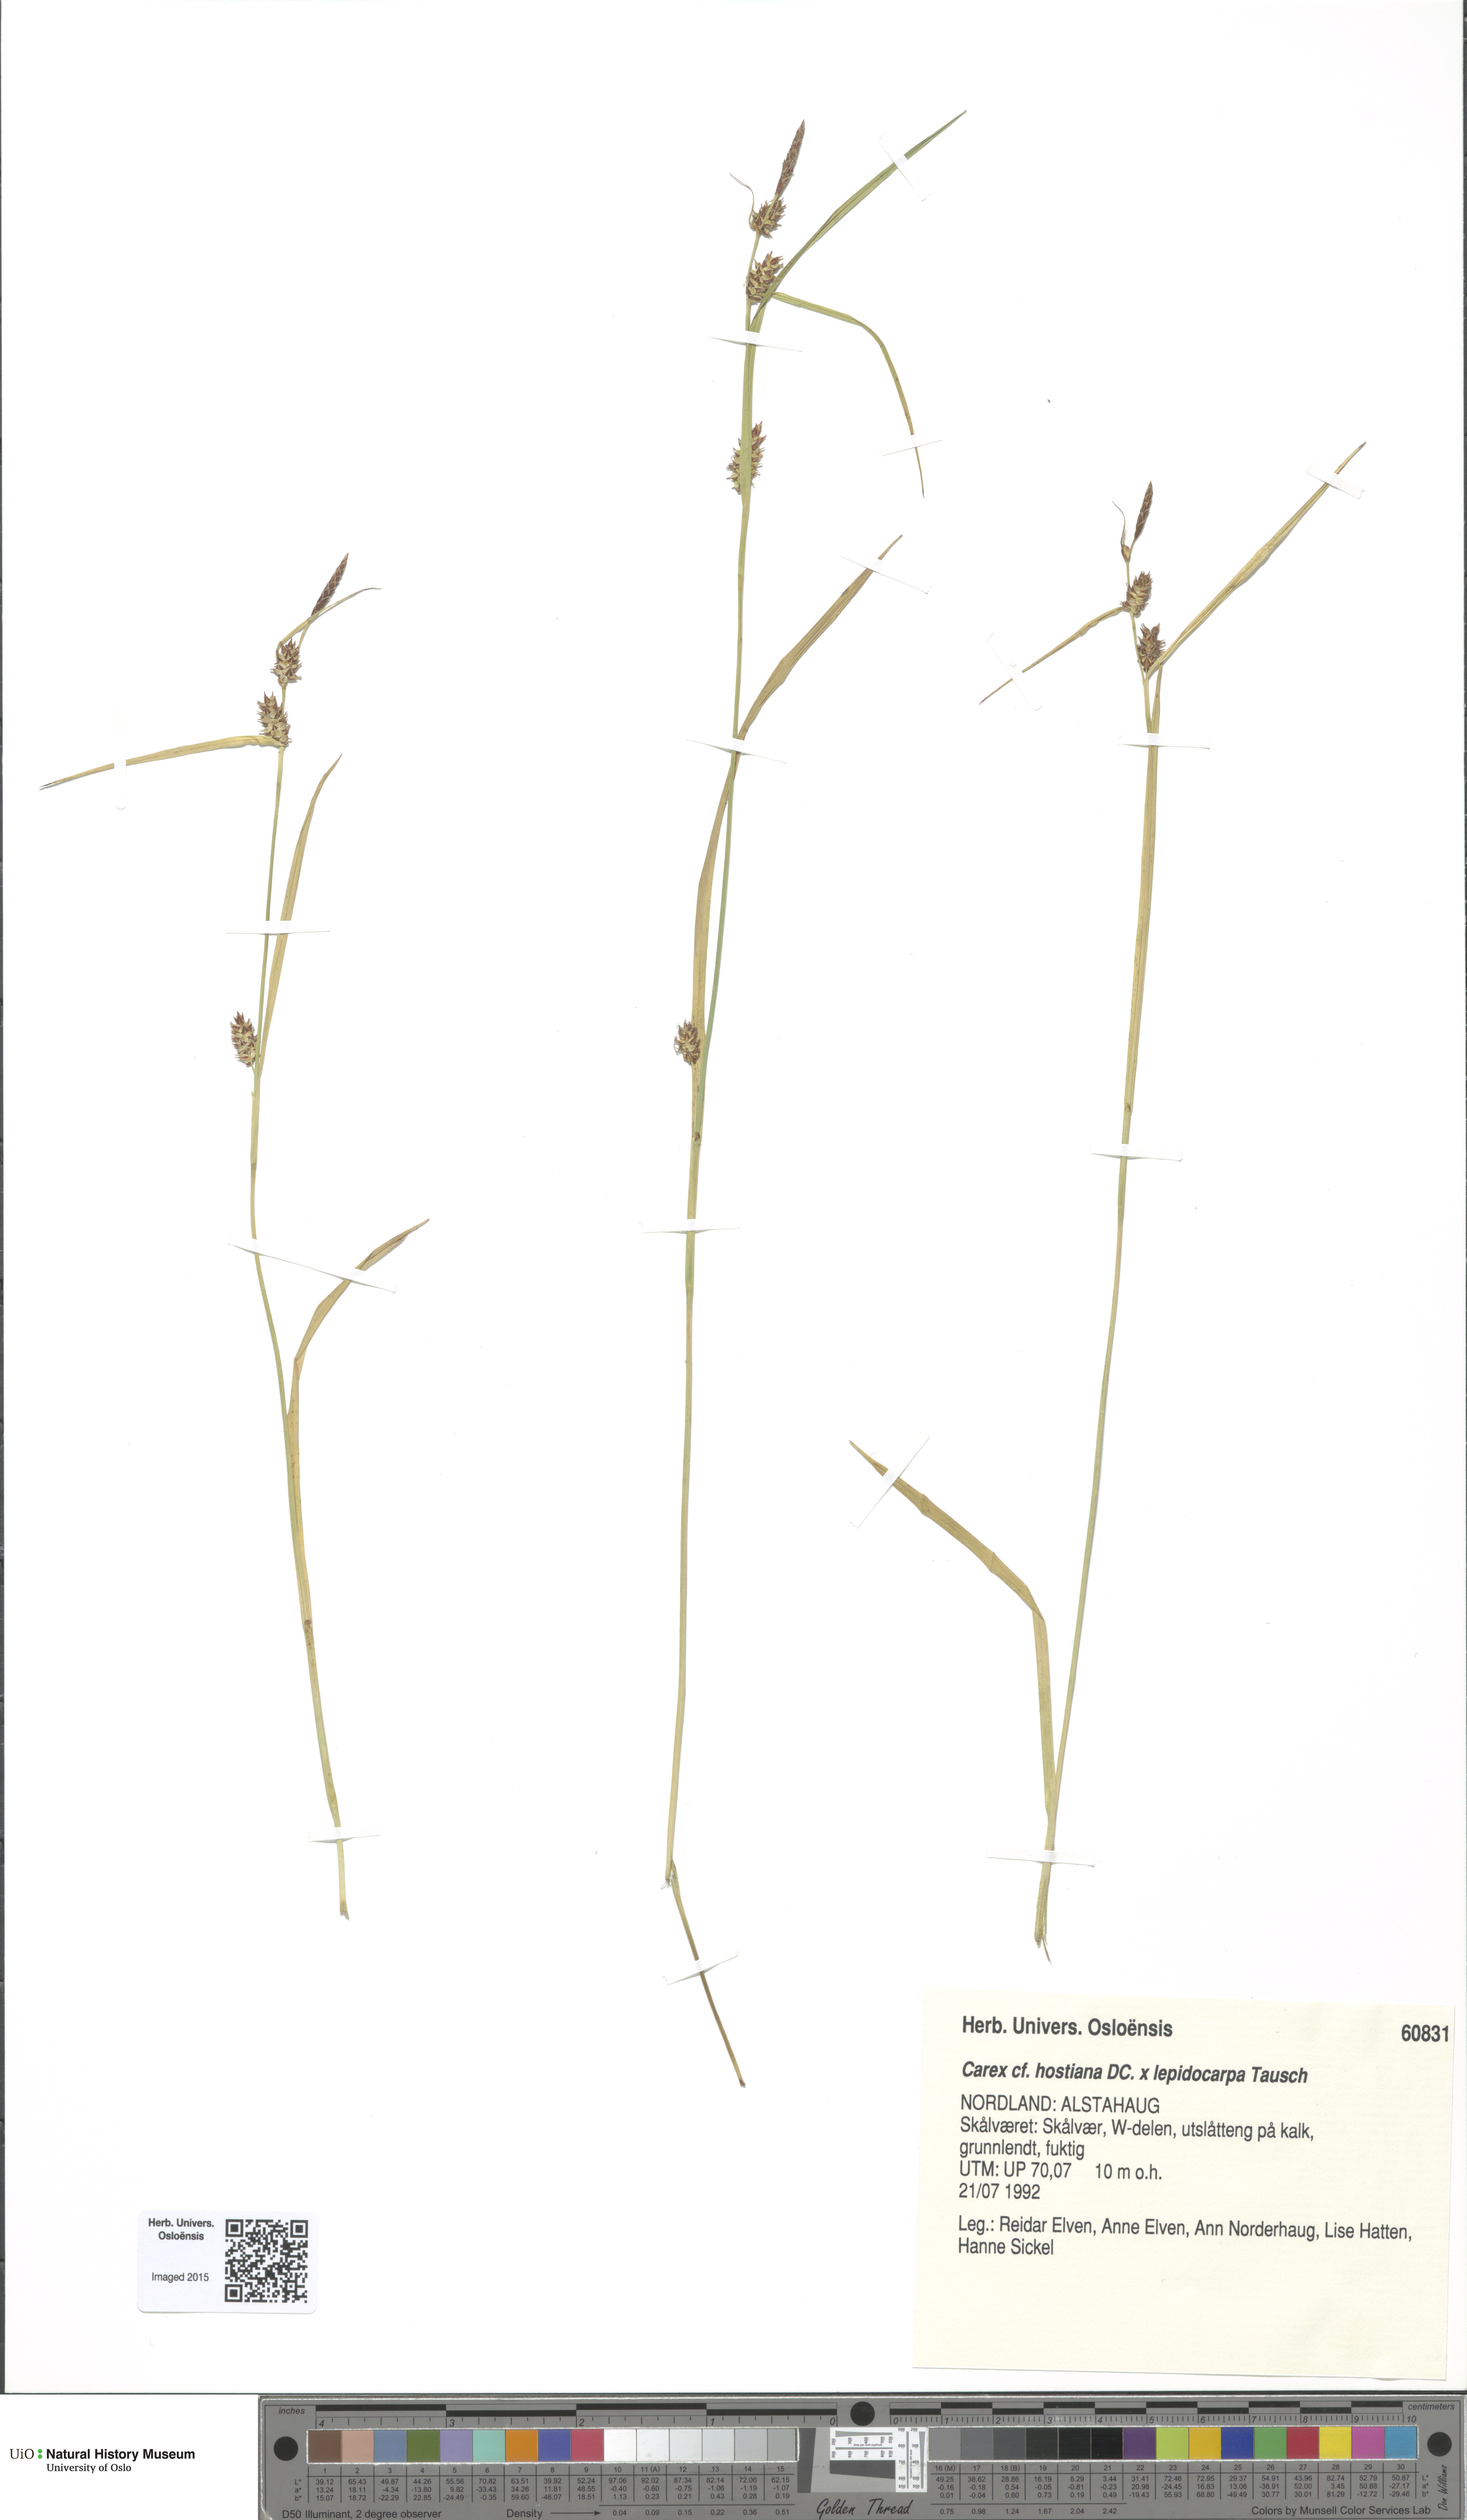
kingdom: Plantae
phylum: Tracheophyta
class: Liliopsida
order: Poales
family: Cyperaceae
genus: Carex
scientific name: Carex
